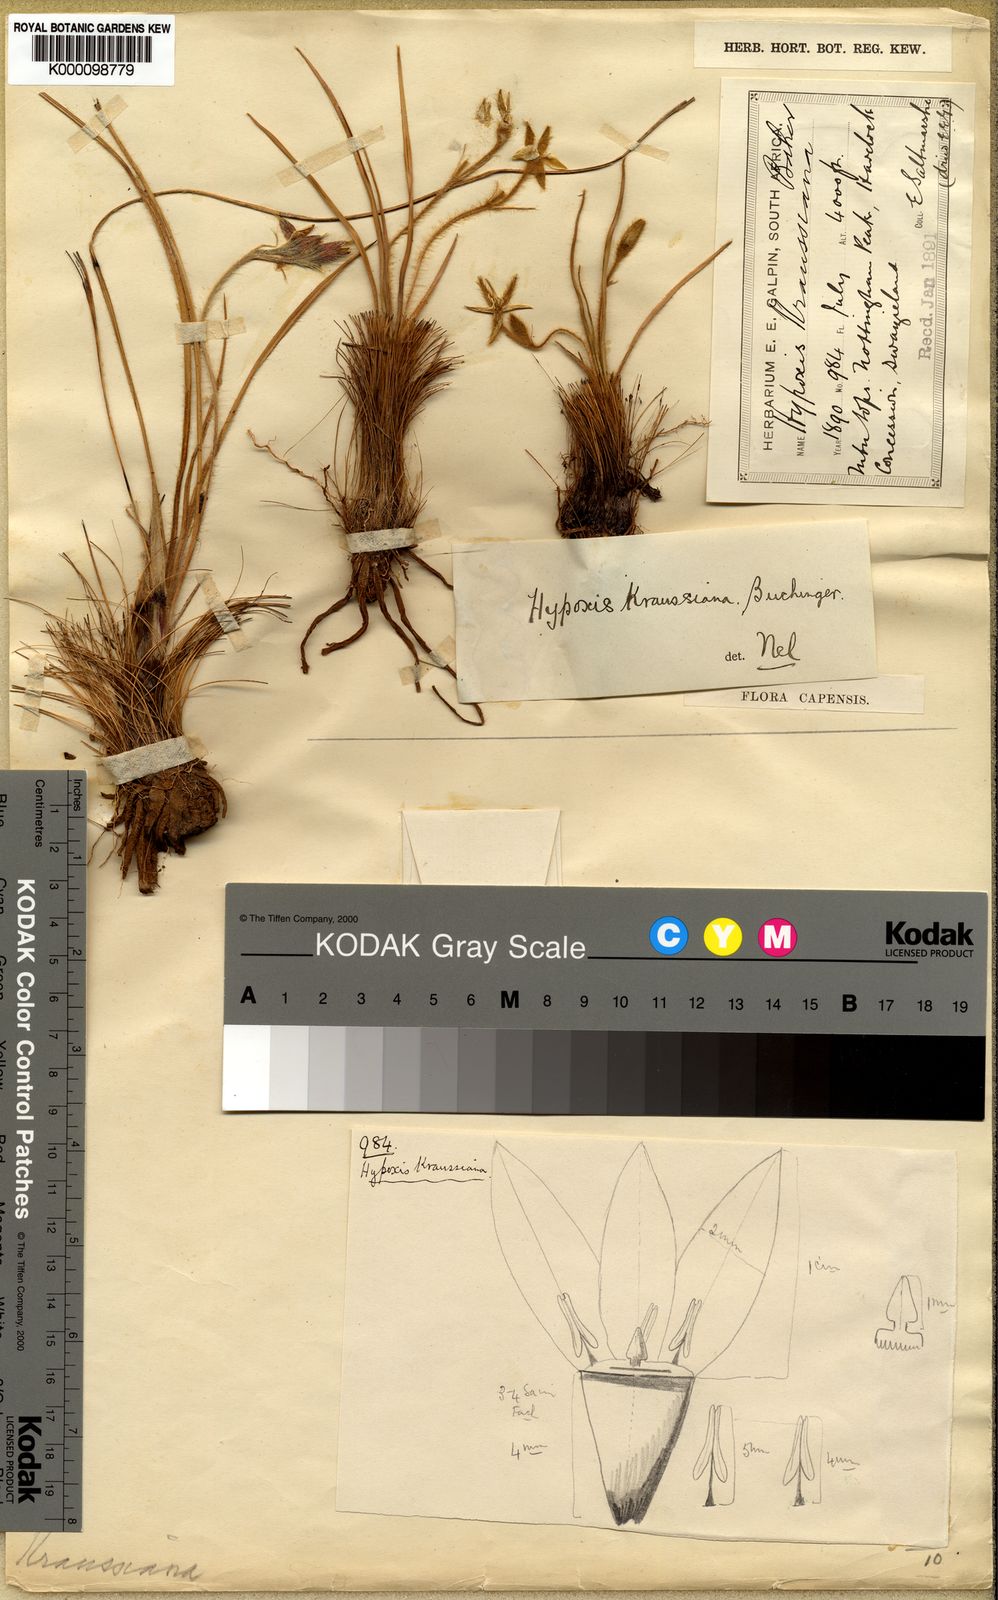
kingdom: Plantae
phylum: Tracheophyta
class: Liliopsida
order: Asparagales
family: Hypoxidaceae
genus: Hypoxis
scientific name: Hypoxis
